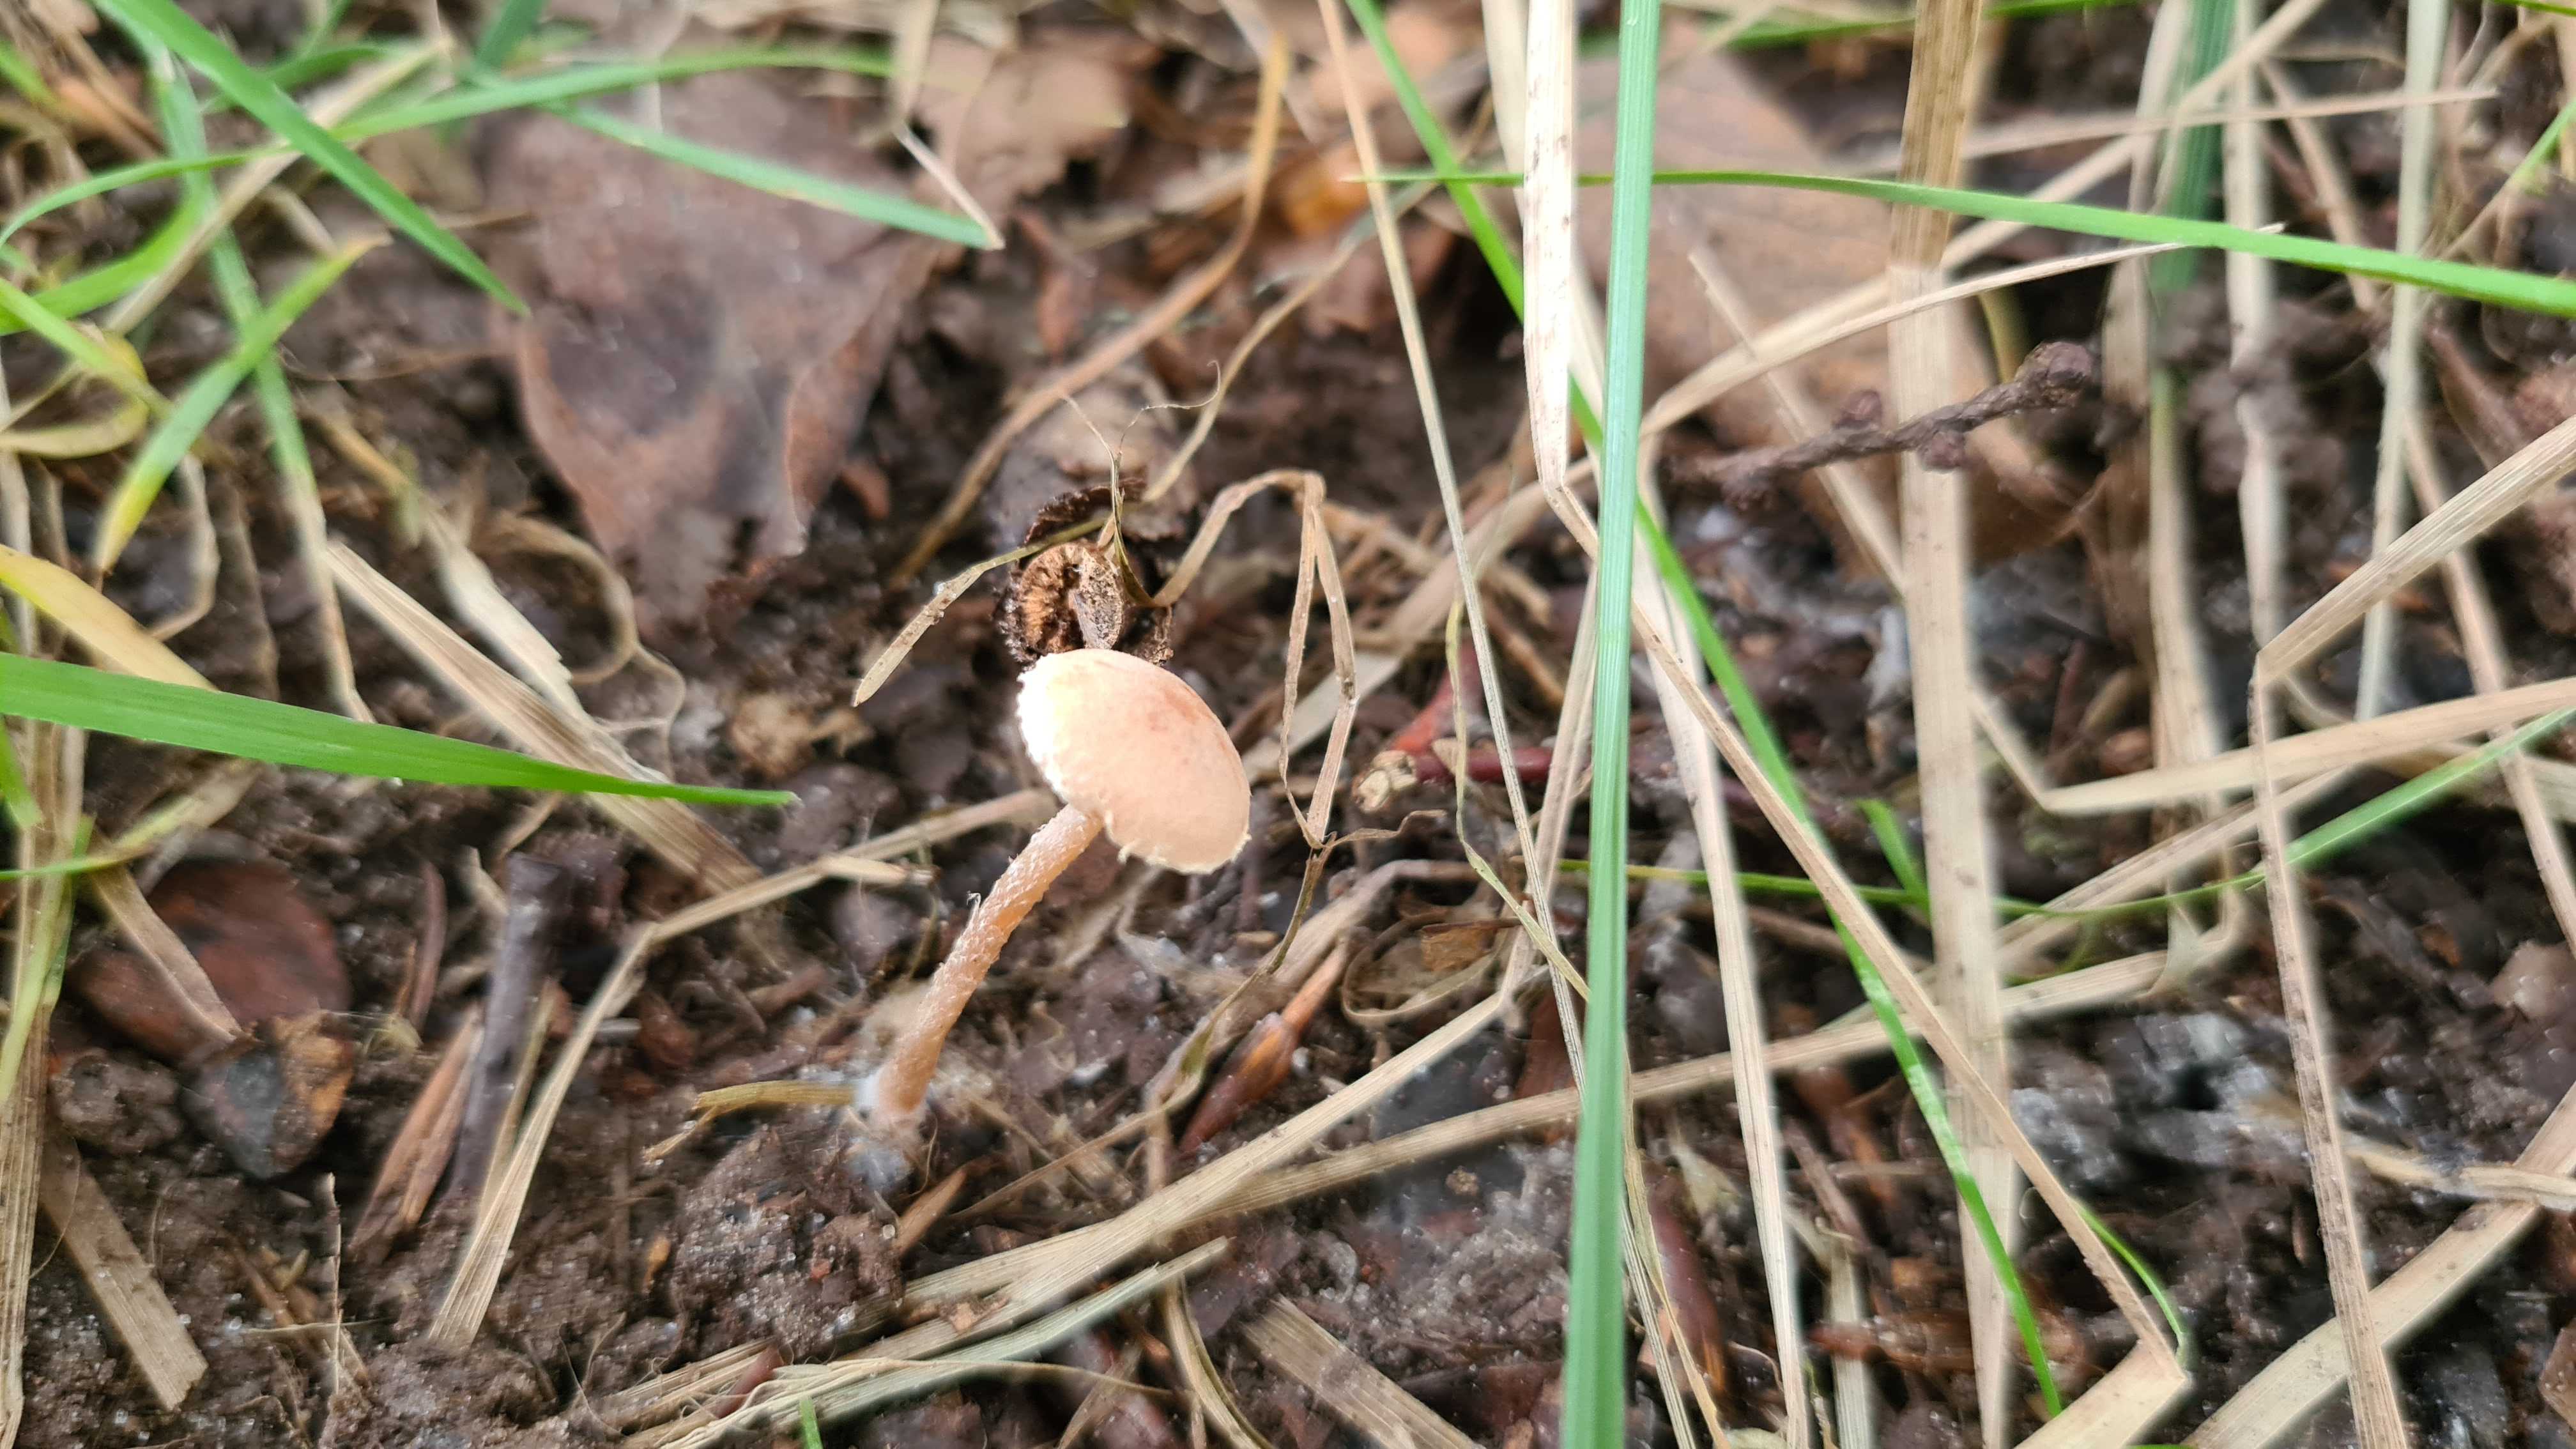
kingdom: Fungi
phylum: Basidiomycota
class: Agaricomycetes
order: Agaricales
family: Tubariaceae
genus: Tubaria
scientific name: Tubaria conspersa
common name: bleg fnughat
